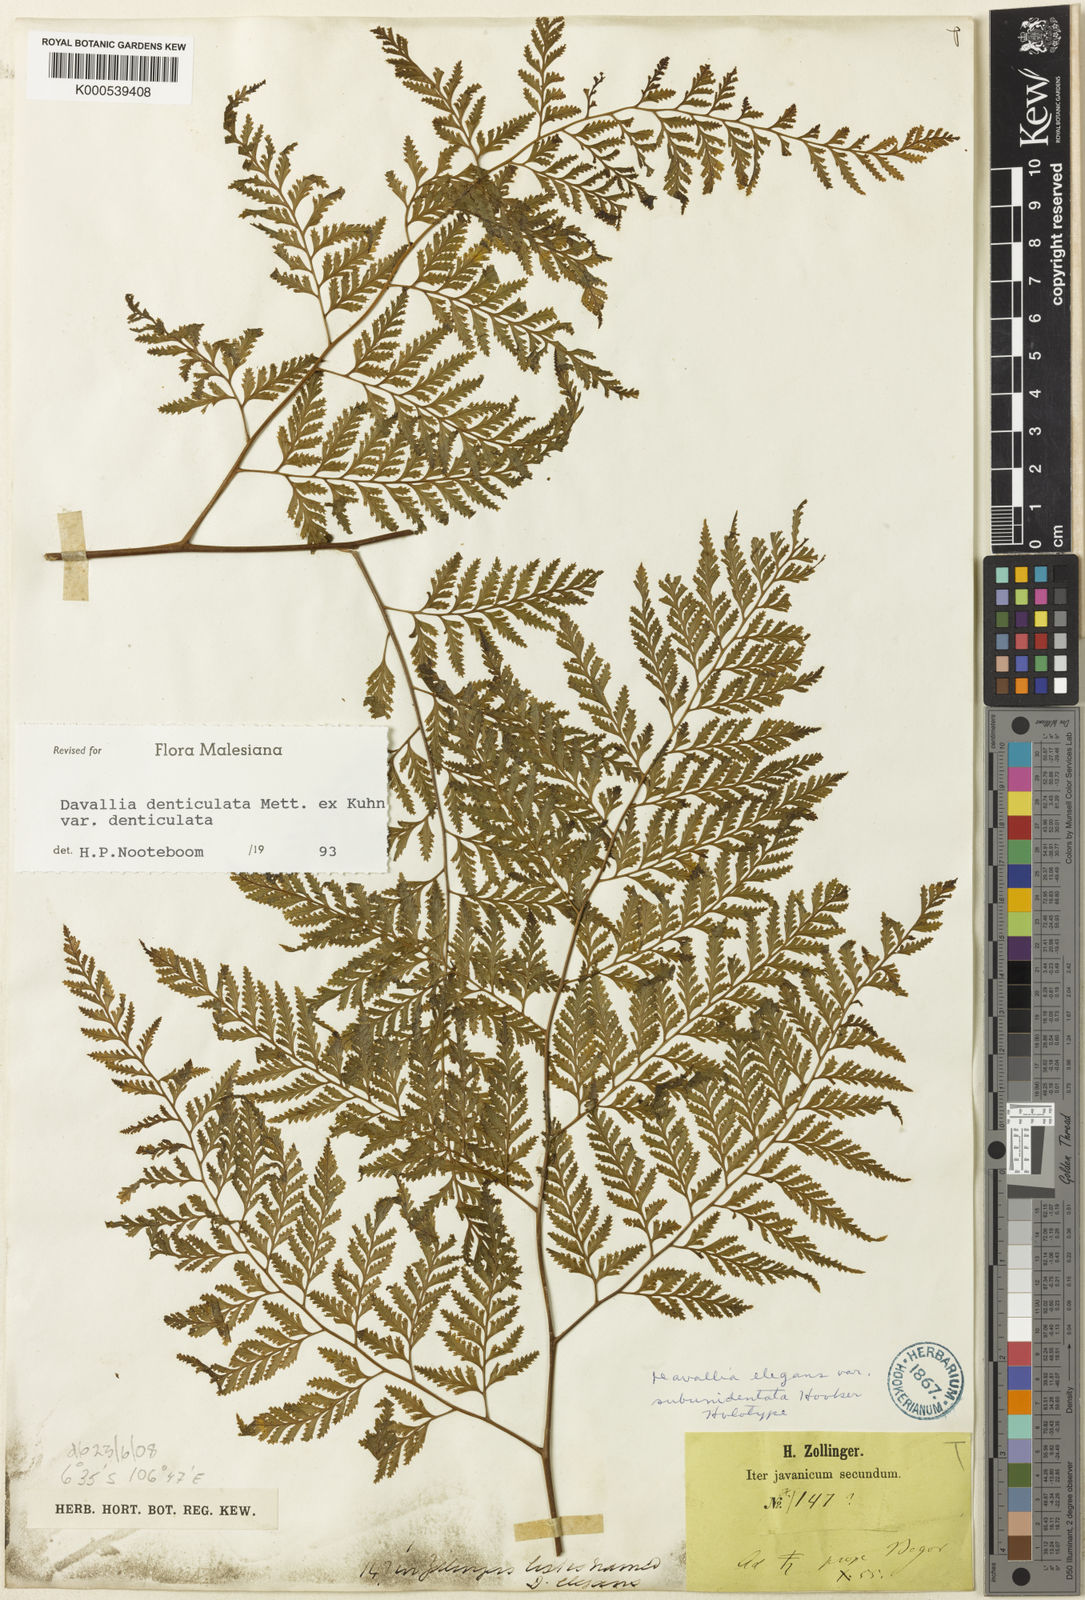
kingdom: Plantae
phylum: Tracheophyta
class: Polypodiopsida
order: Polypodiales
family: Davalliaceae
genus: Davallia
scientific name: Davallia denticulata
